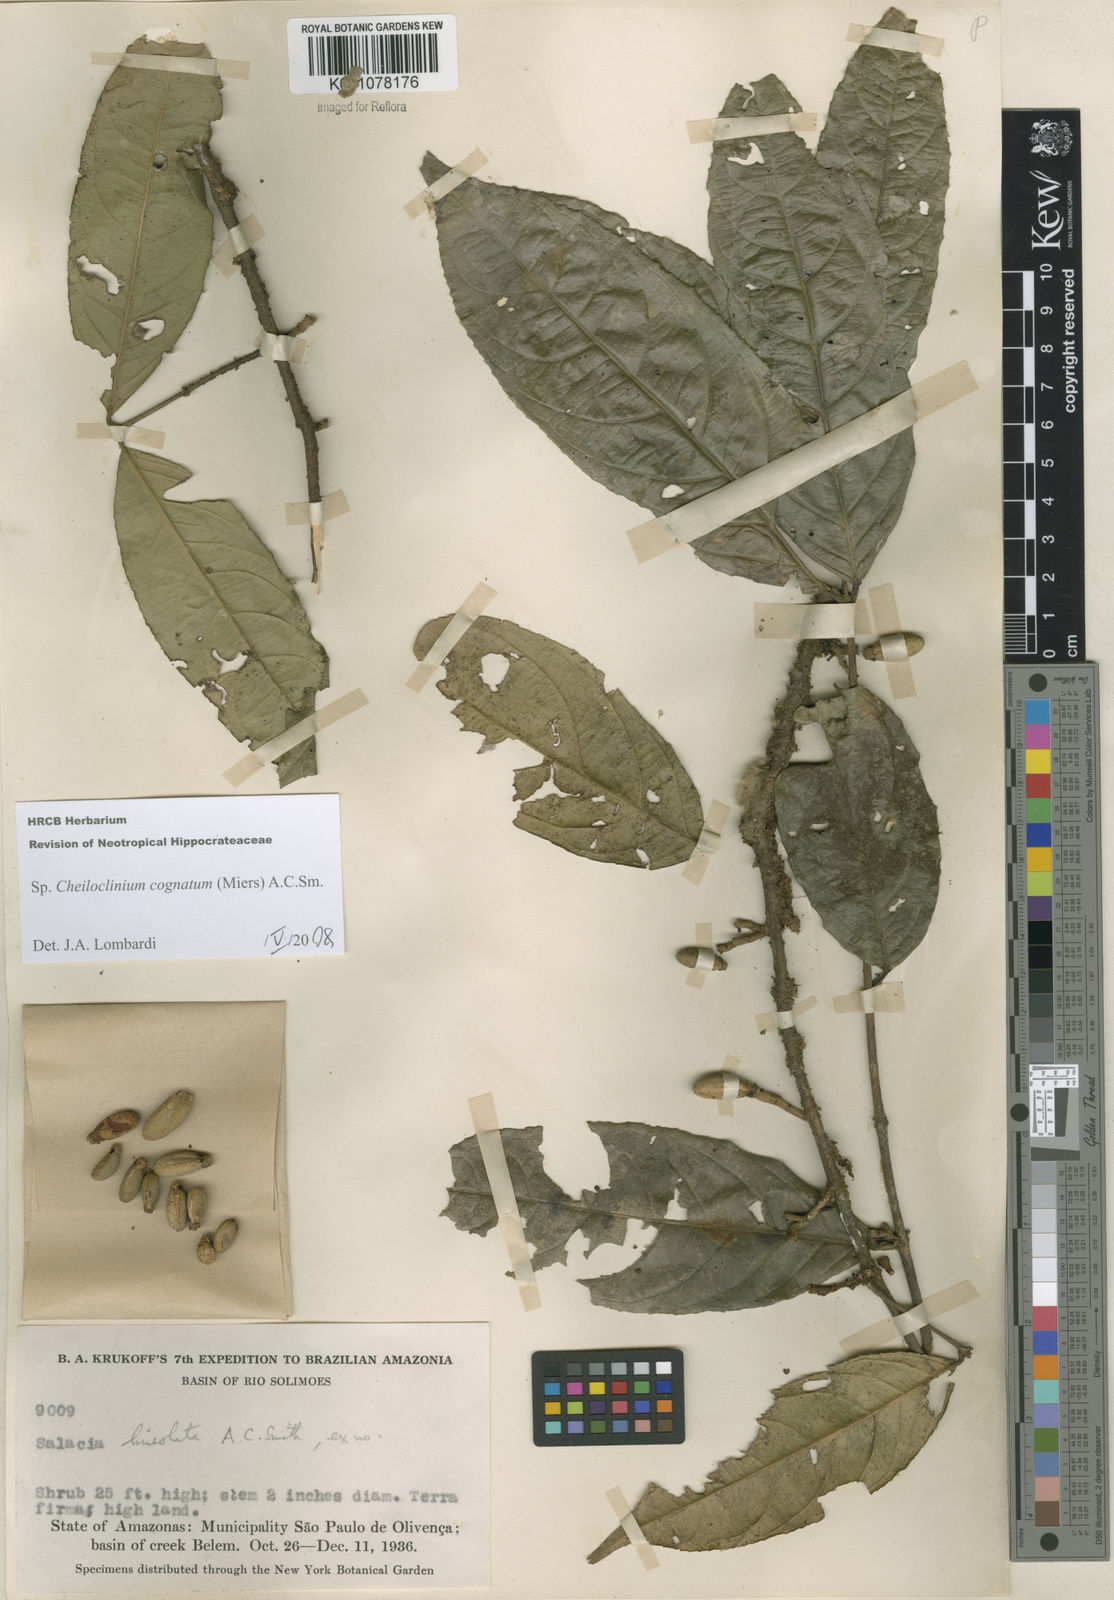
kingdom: Plantae
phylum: Tracheophyta
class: Magnoliopsida
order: Celastrales
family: Celastraceae
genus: Cheiloclinium
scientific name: Cheiloclinium cognatum
